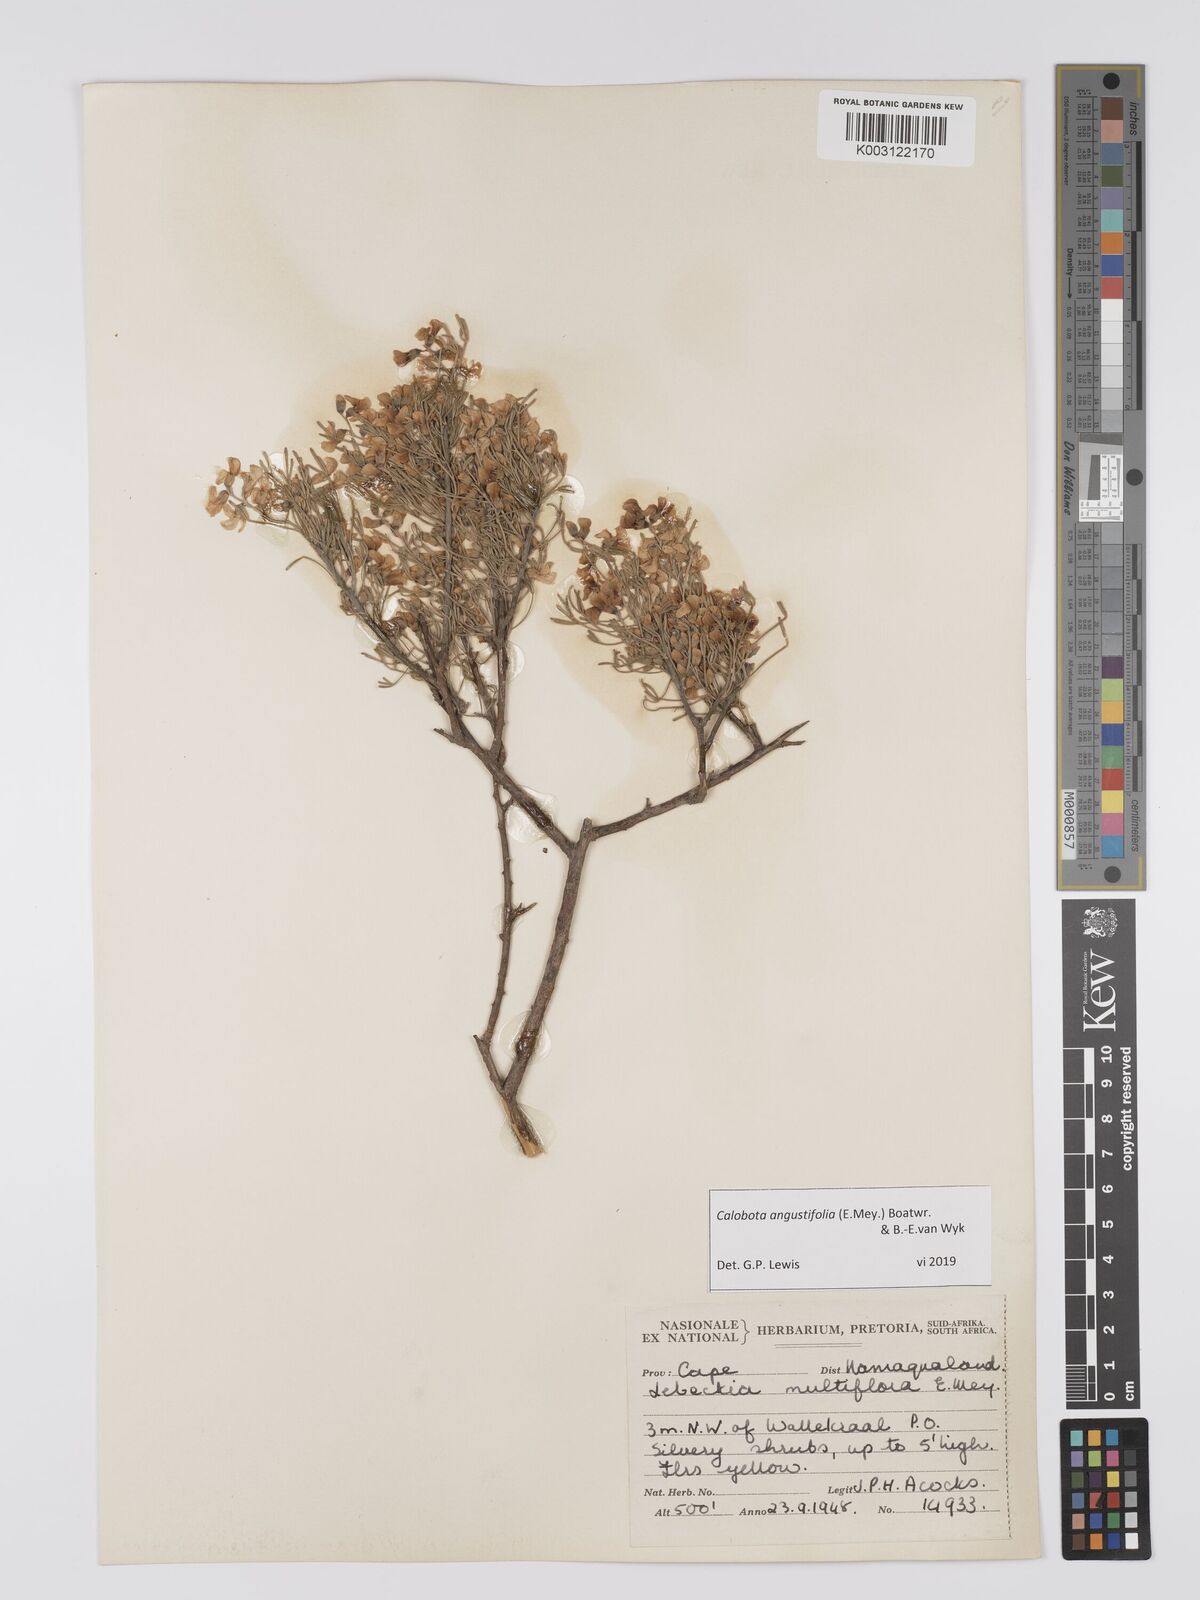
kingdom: Plantae
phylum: Tracheophyta
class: Magnoliopsida
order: Fabales
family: Fabaceae
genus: Calobota
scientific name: Calobota angustifolia
